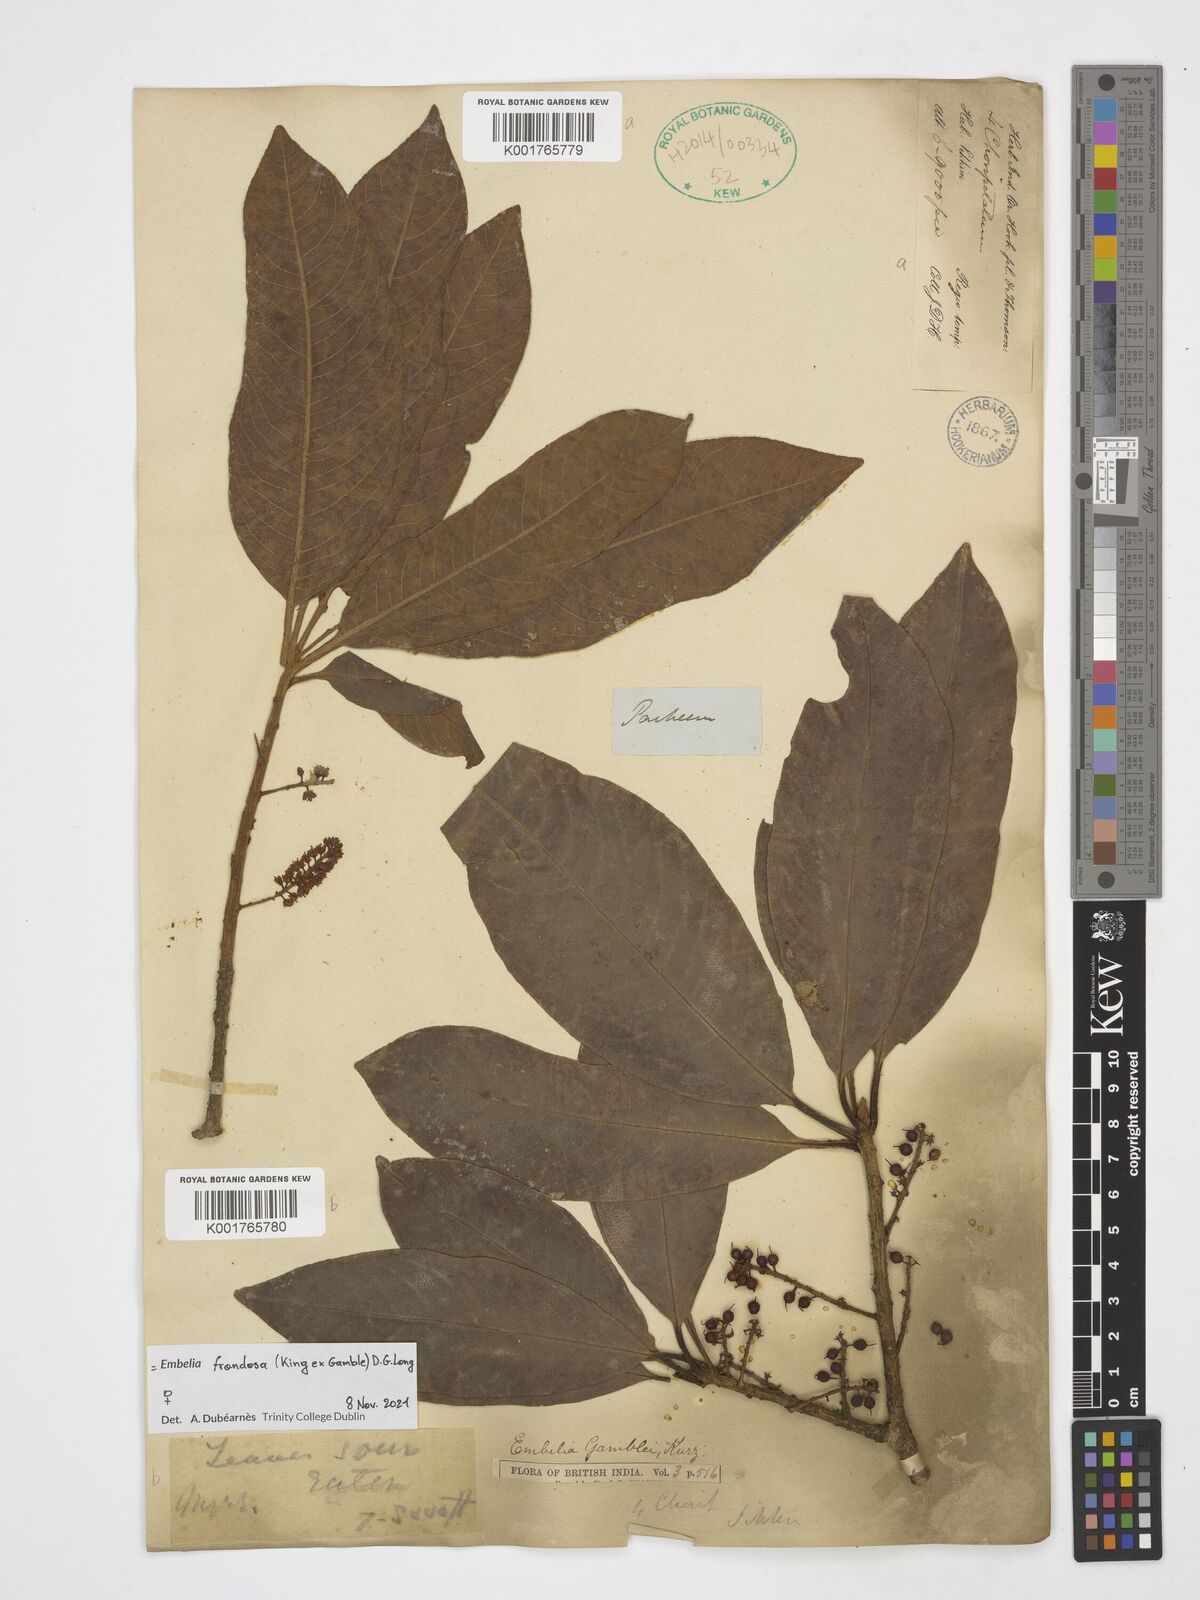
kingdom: Plantae
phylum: Tracheophyta
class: Magnoliopsida
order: Ericales
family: Primulaceae
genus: Embelia
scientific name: Embelia
